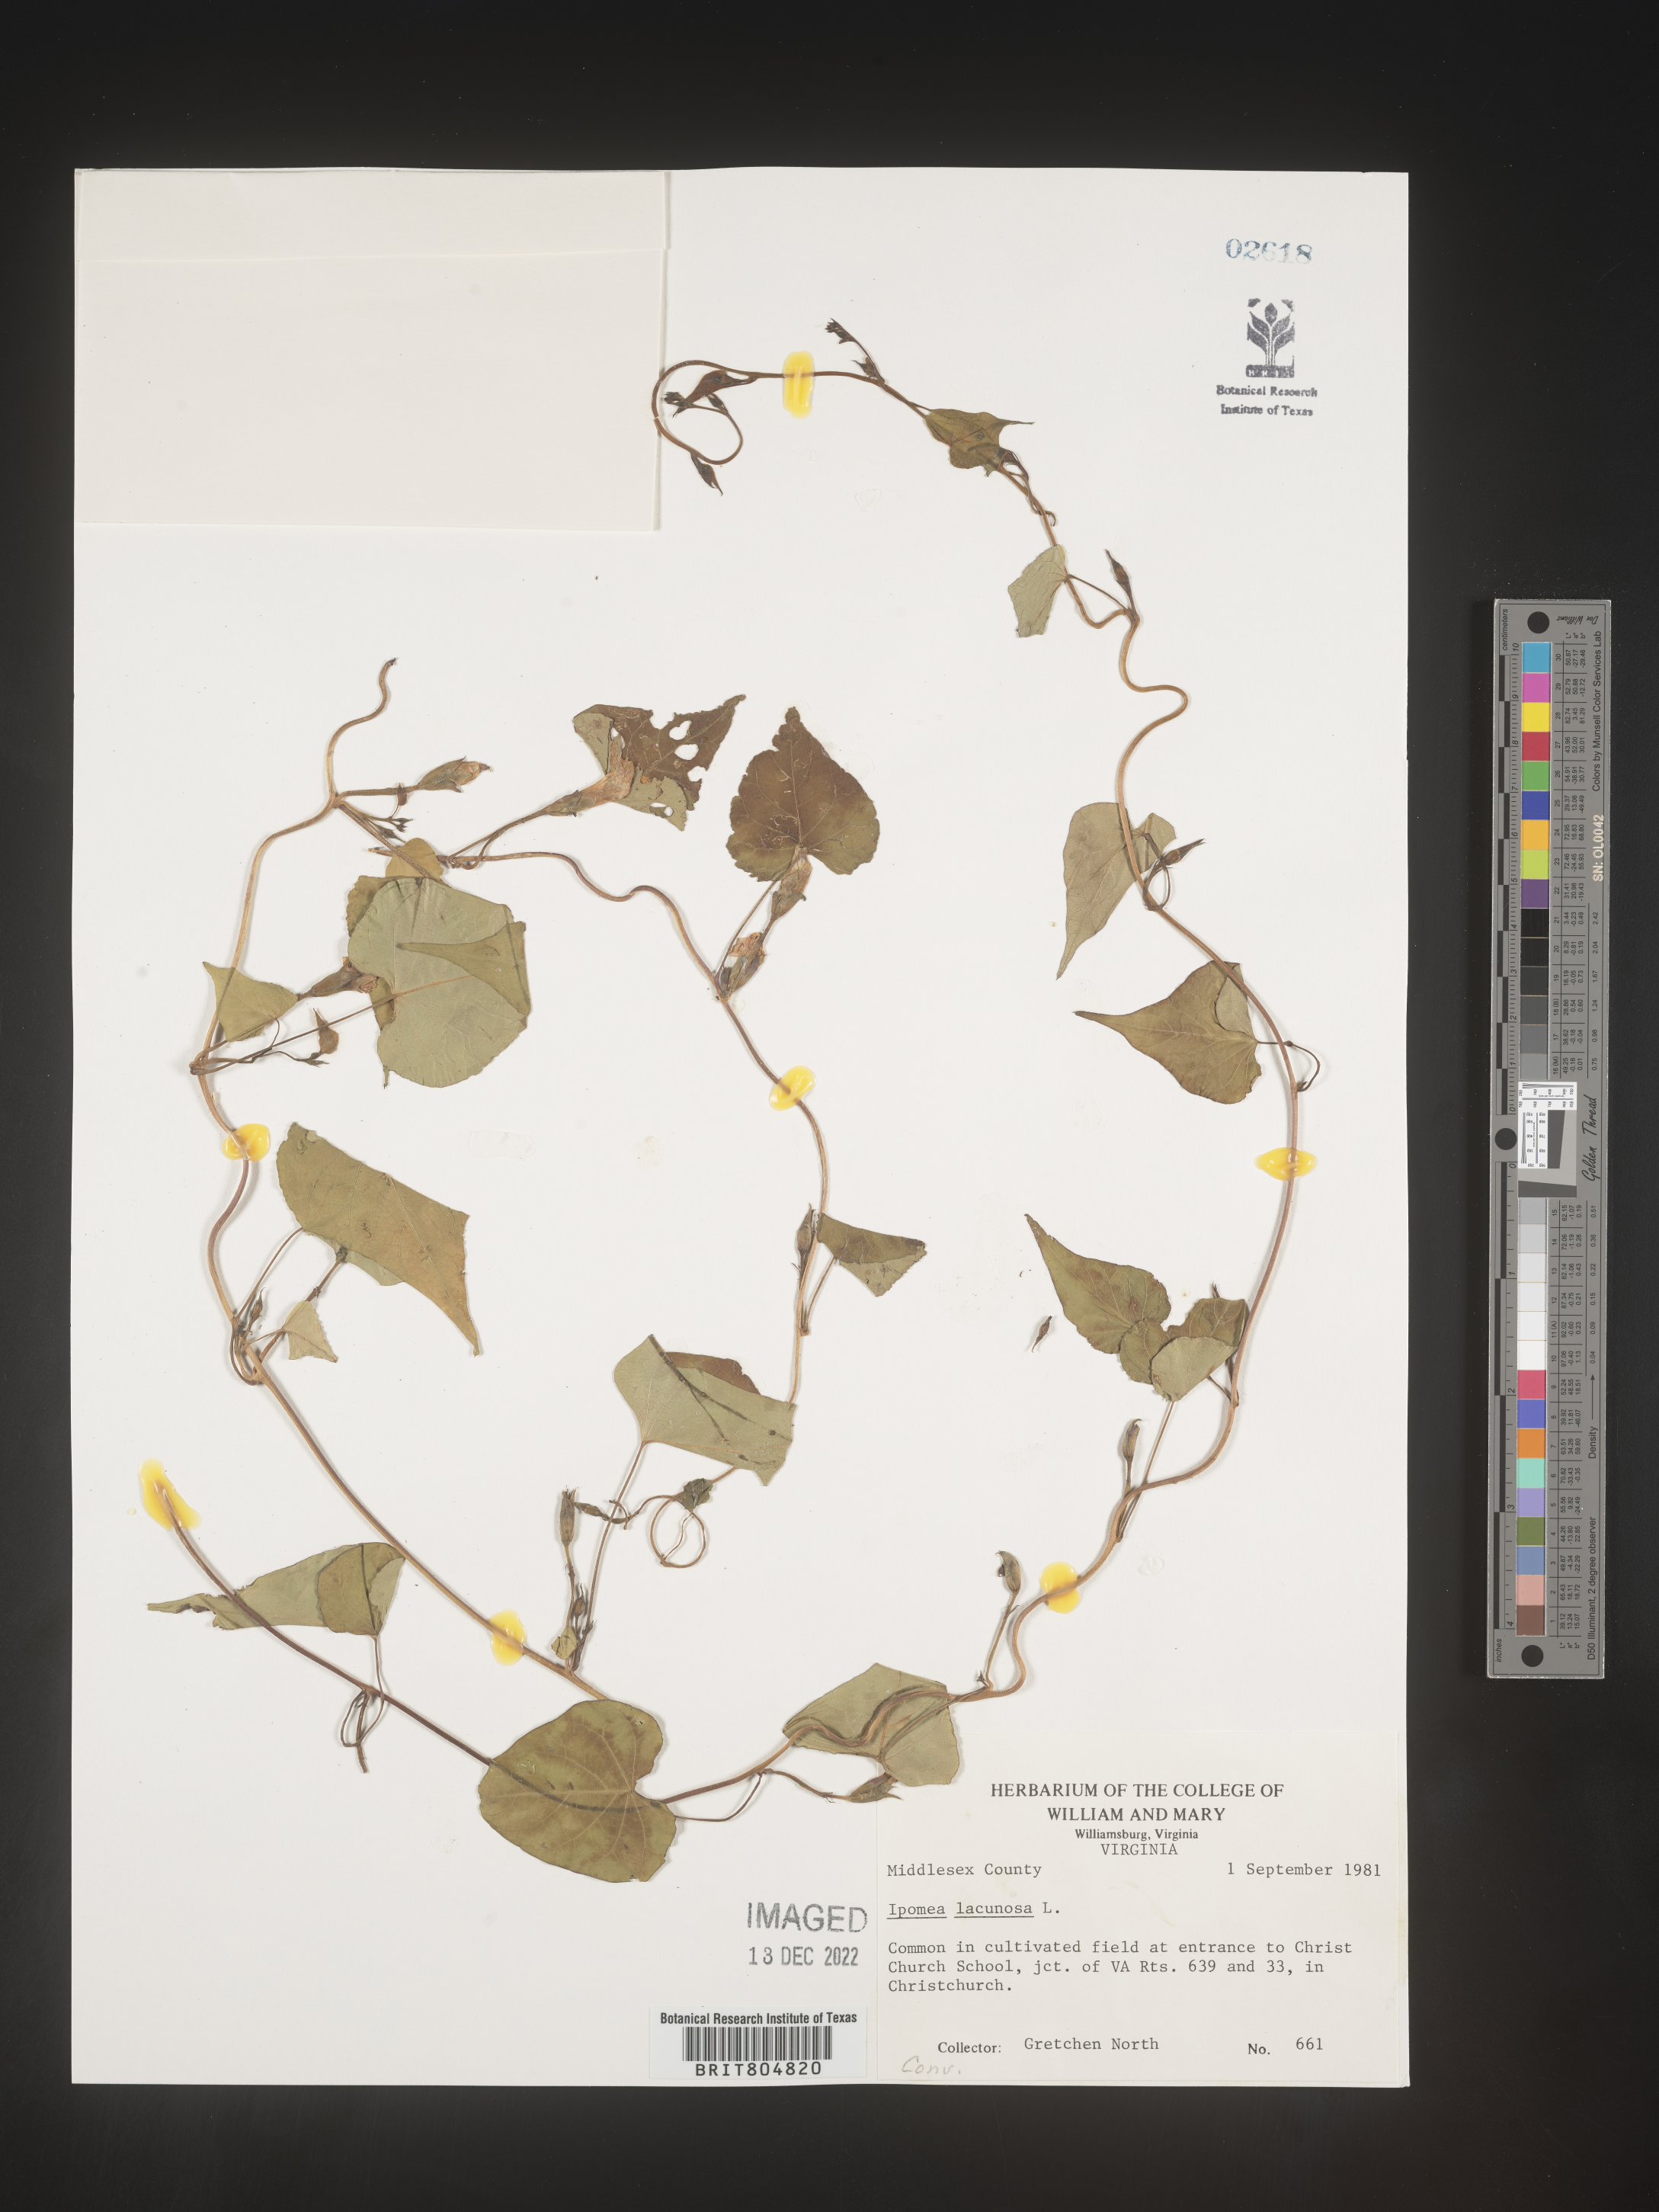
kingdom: Plantae
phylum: Tracheophyta
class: Magnoliopsida
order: Solanales
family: Convolvulaceae
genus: Ipomoea
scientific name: Ipomoea lacunosa
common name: White morning-glory
